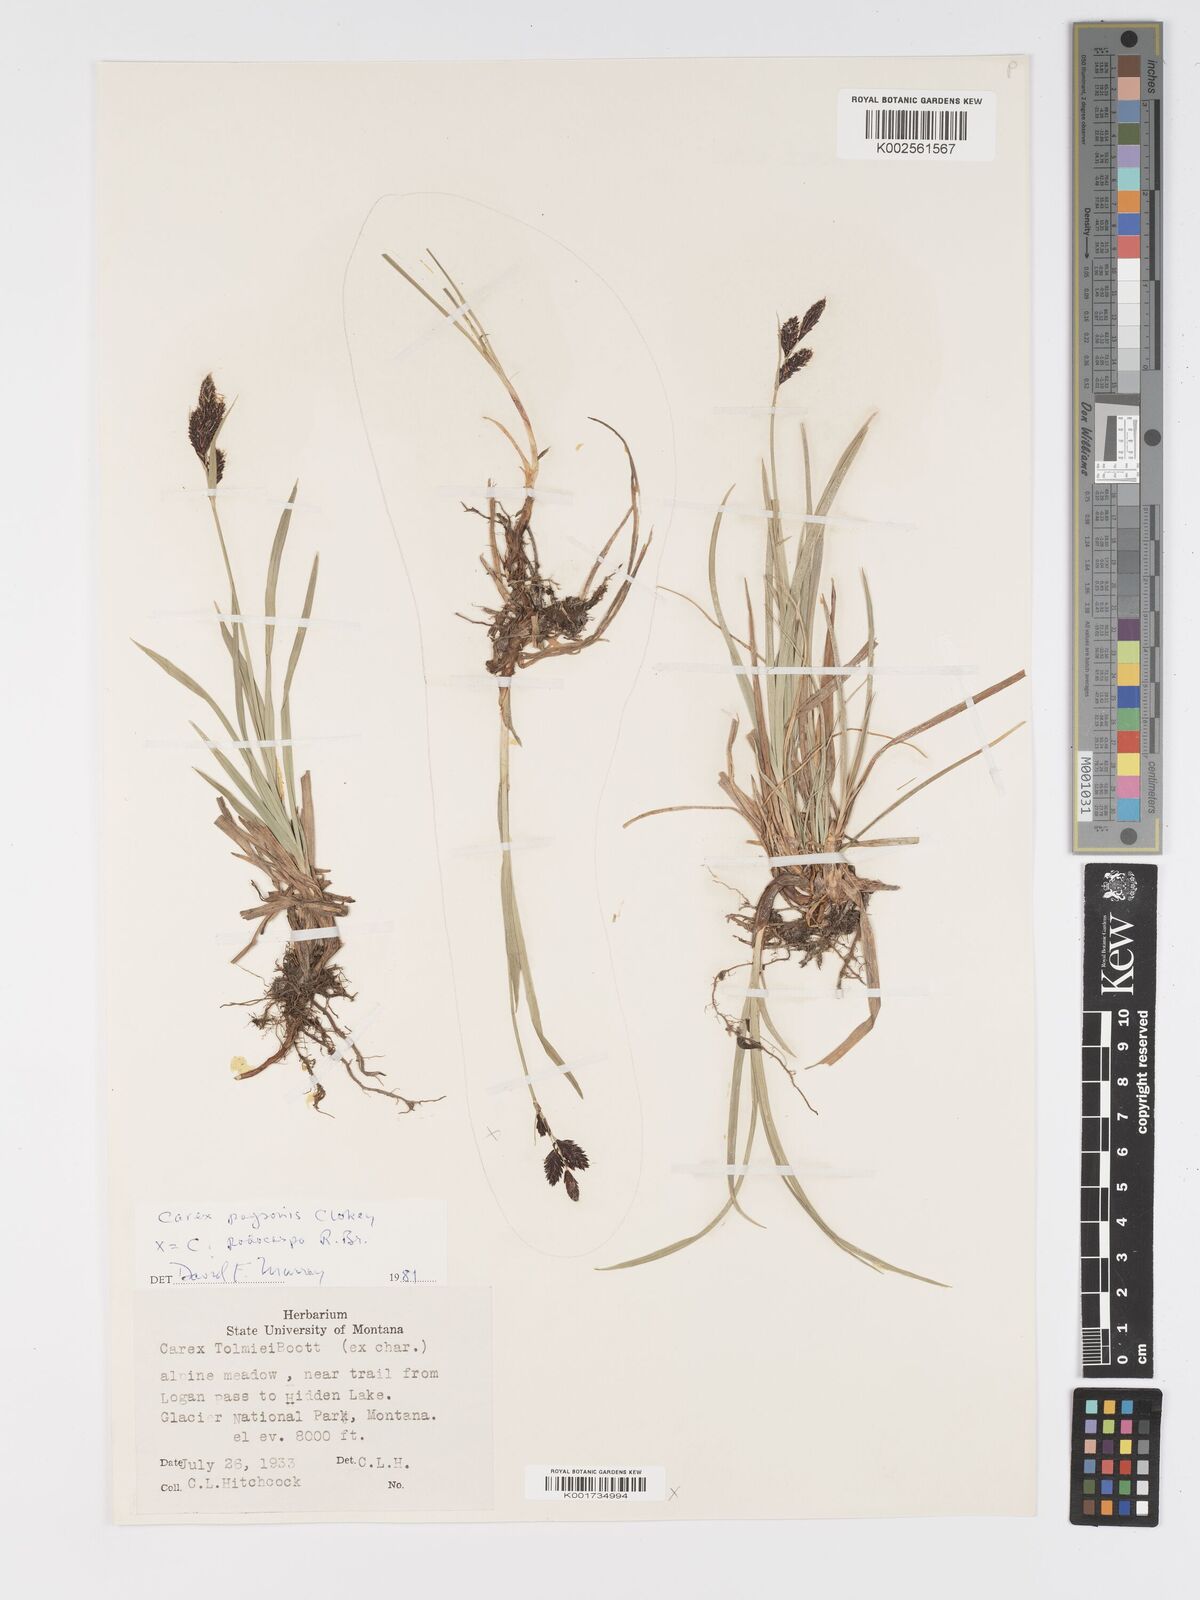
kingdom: Plantae
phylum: Tracheophyta
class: Liliopsida
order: Poales
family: Cyperaceae
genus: Carex
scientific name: Carex podocarpa
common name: Alpine sedge
